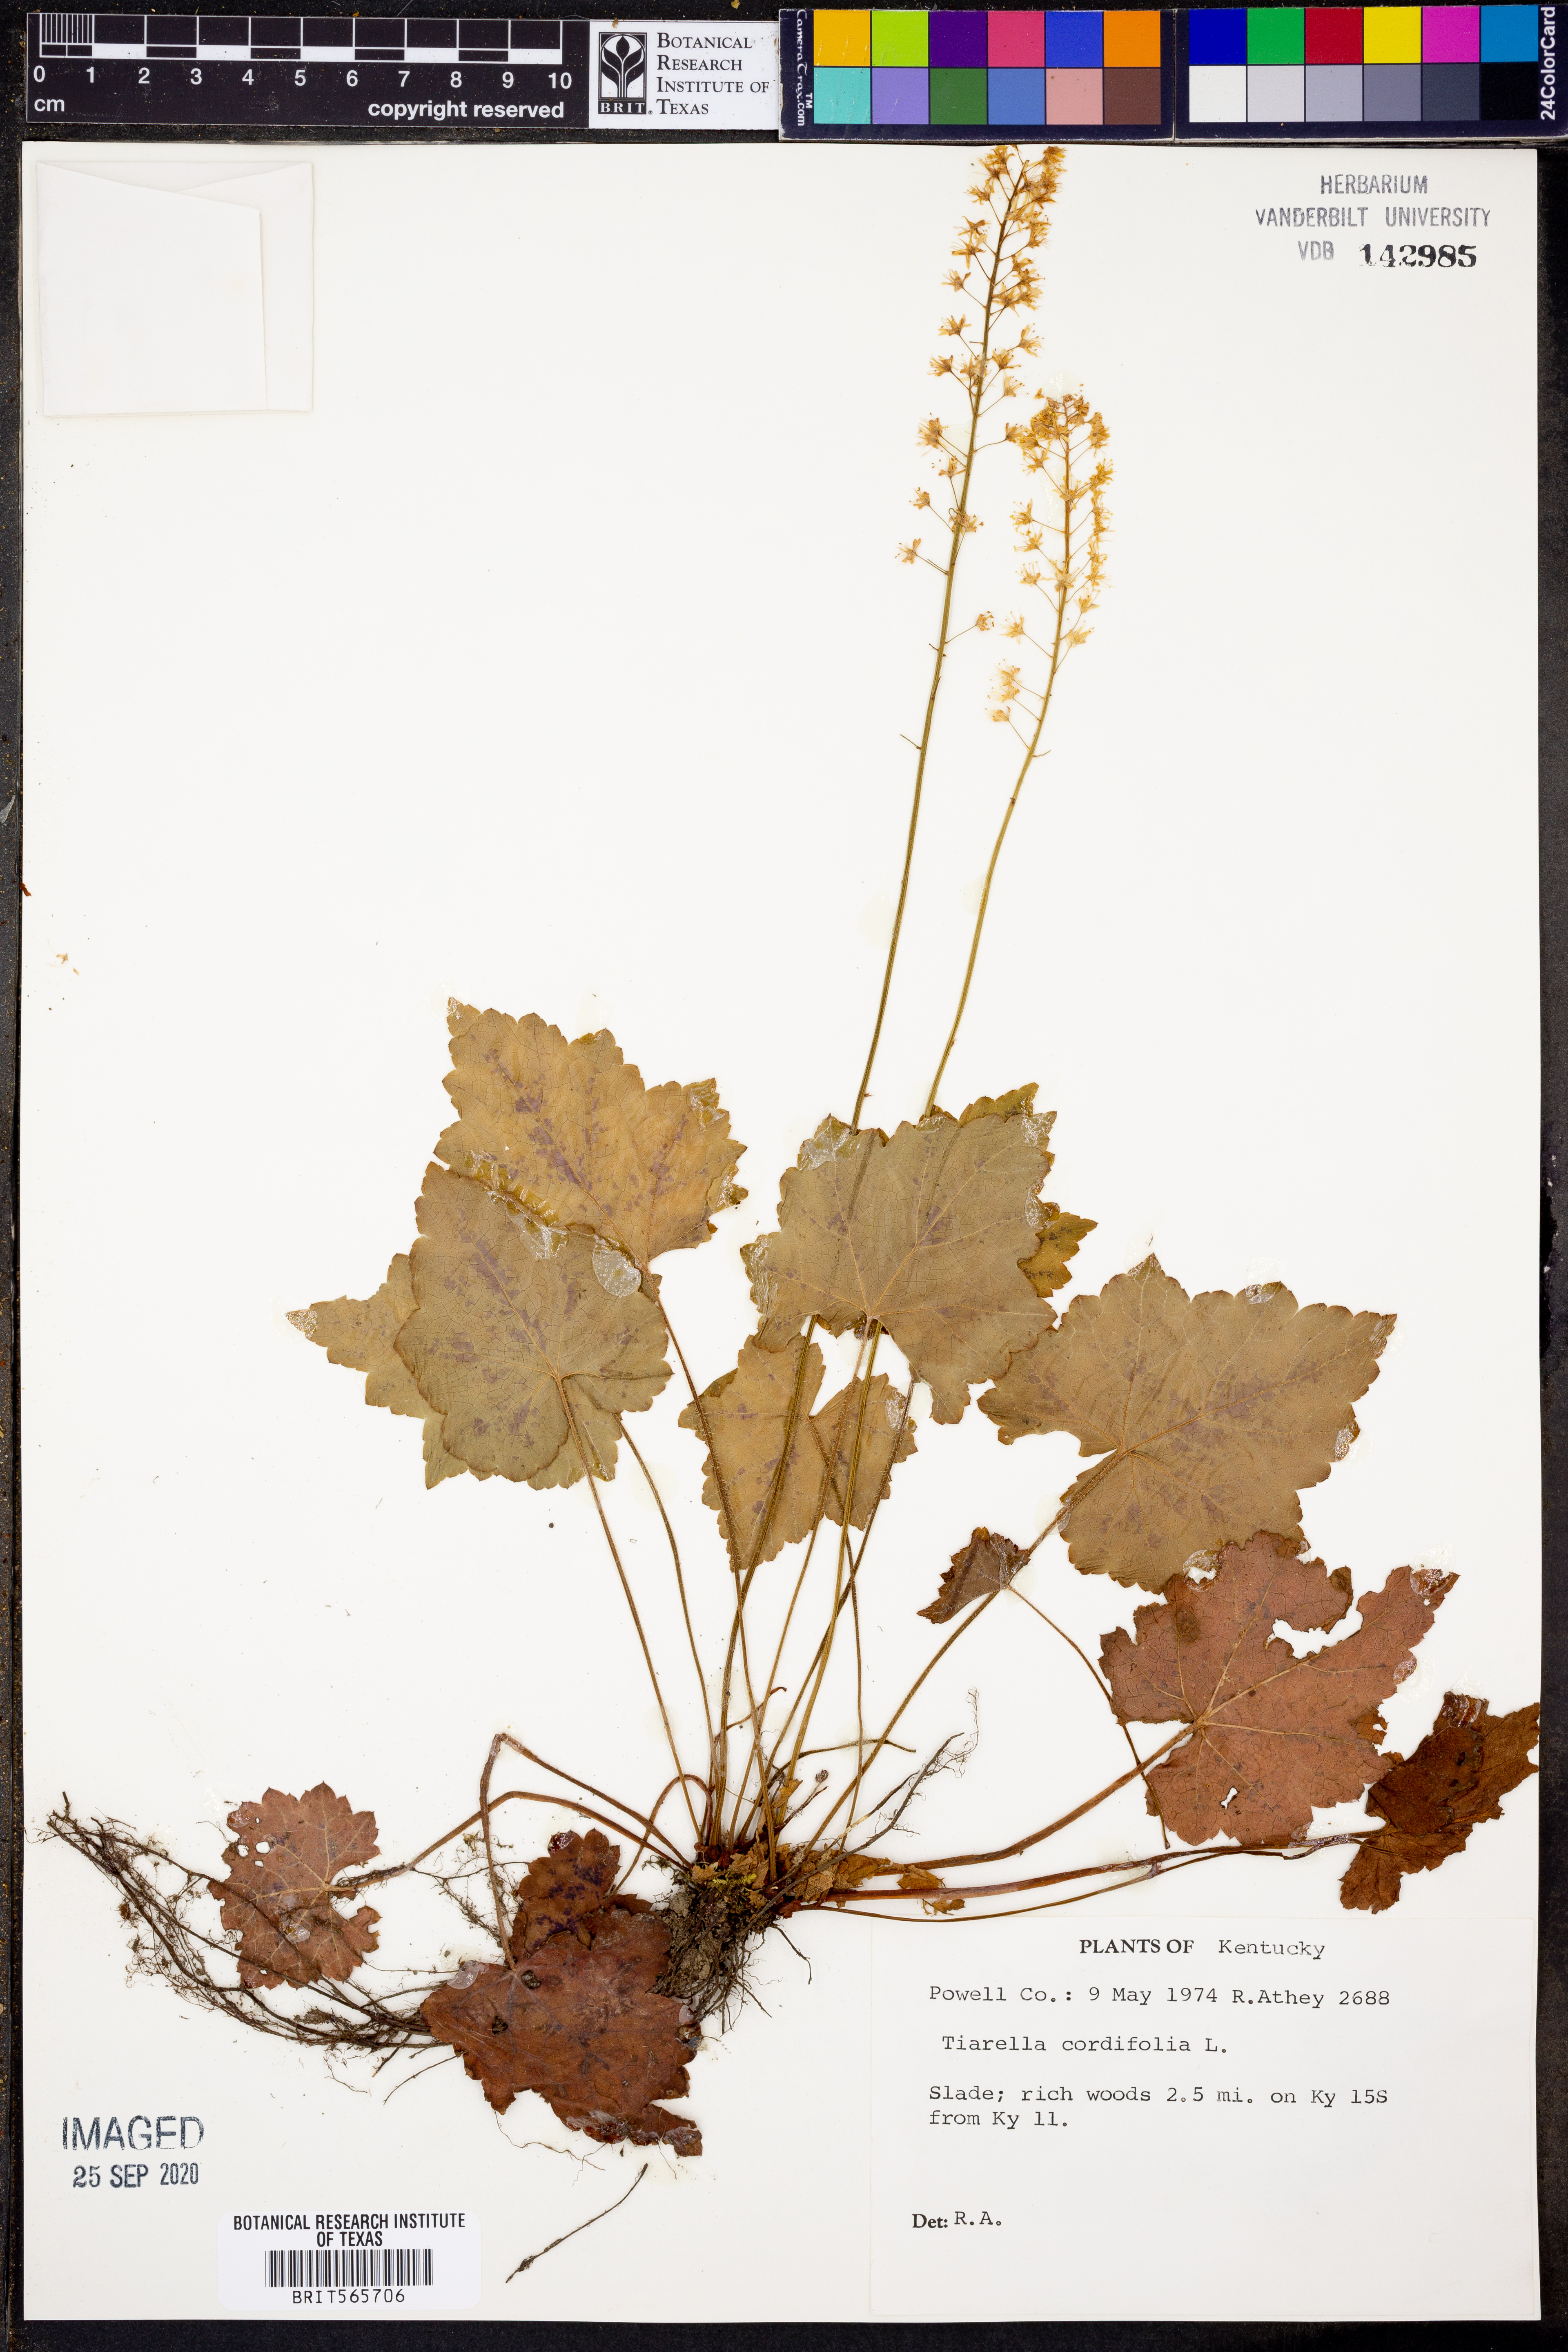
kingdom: Plantae
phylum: Tracheophyta
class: Magnoliopsida
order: Saxifragales
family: Saxifragaceae
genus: Tiarella
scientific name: Tiarella cordifolia
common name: Foamflower
